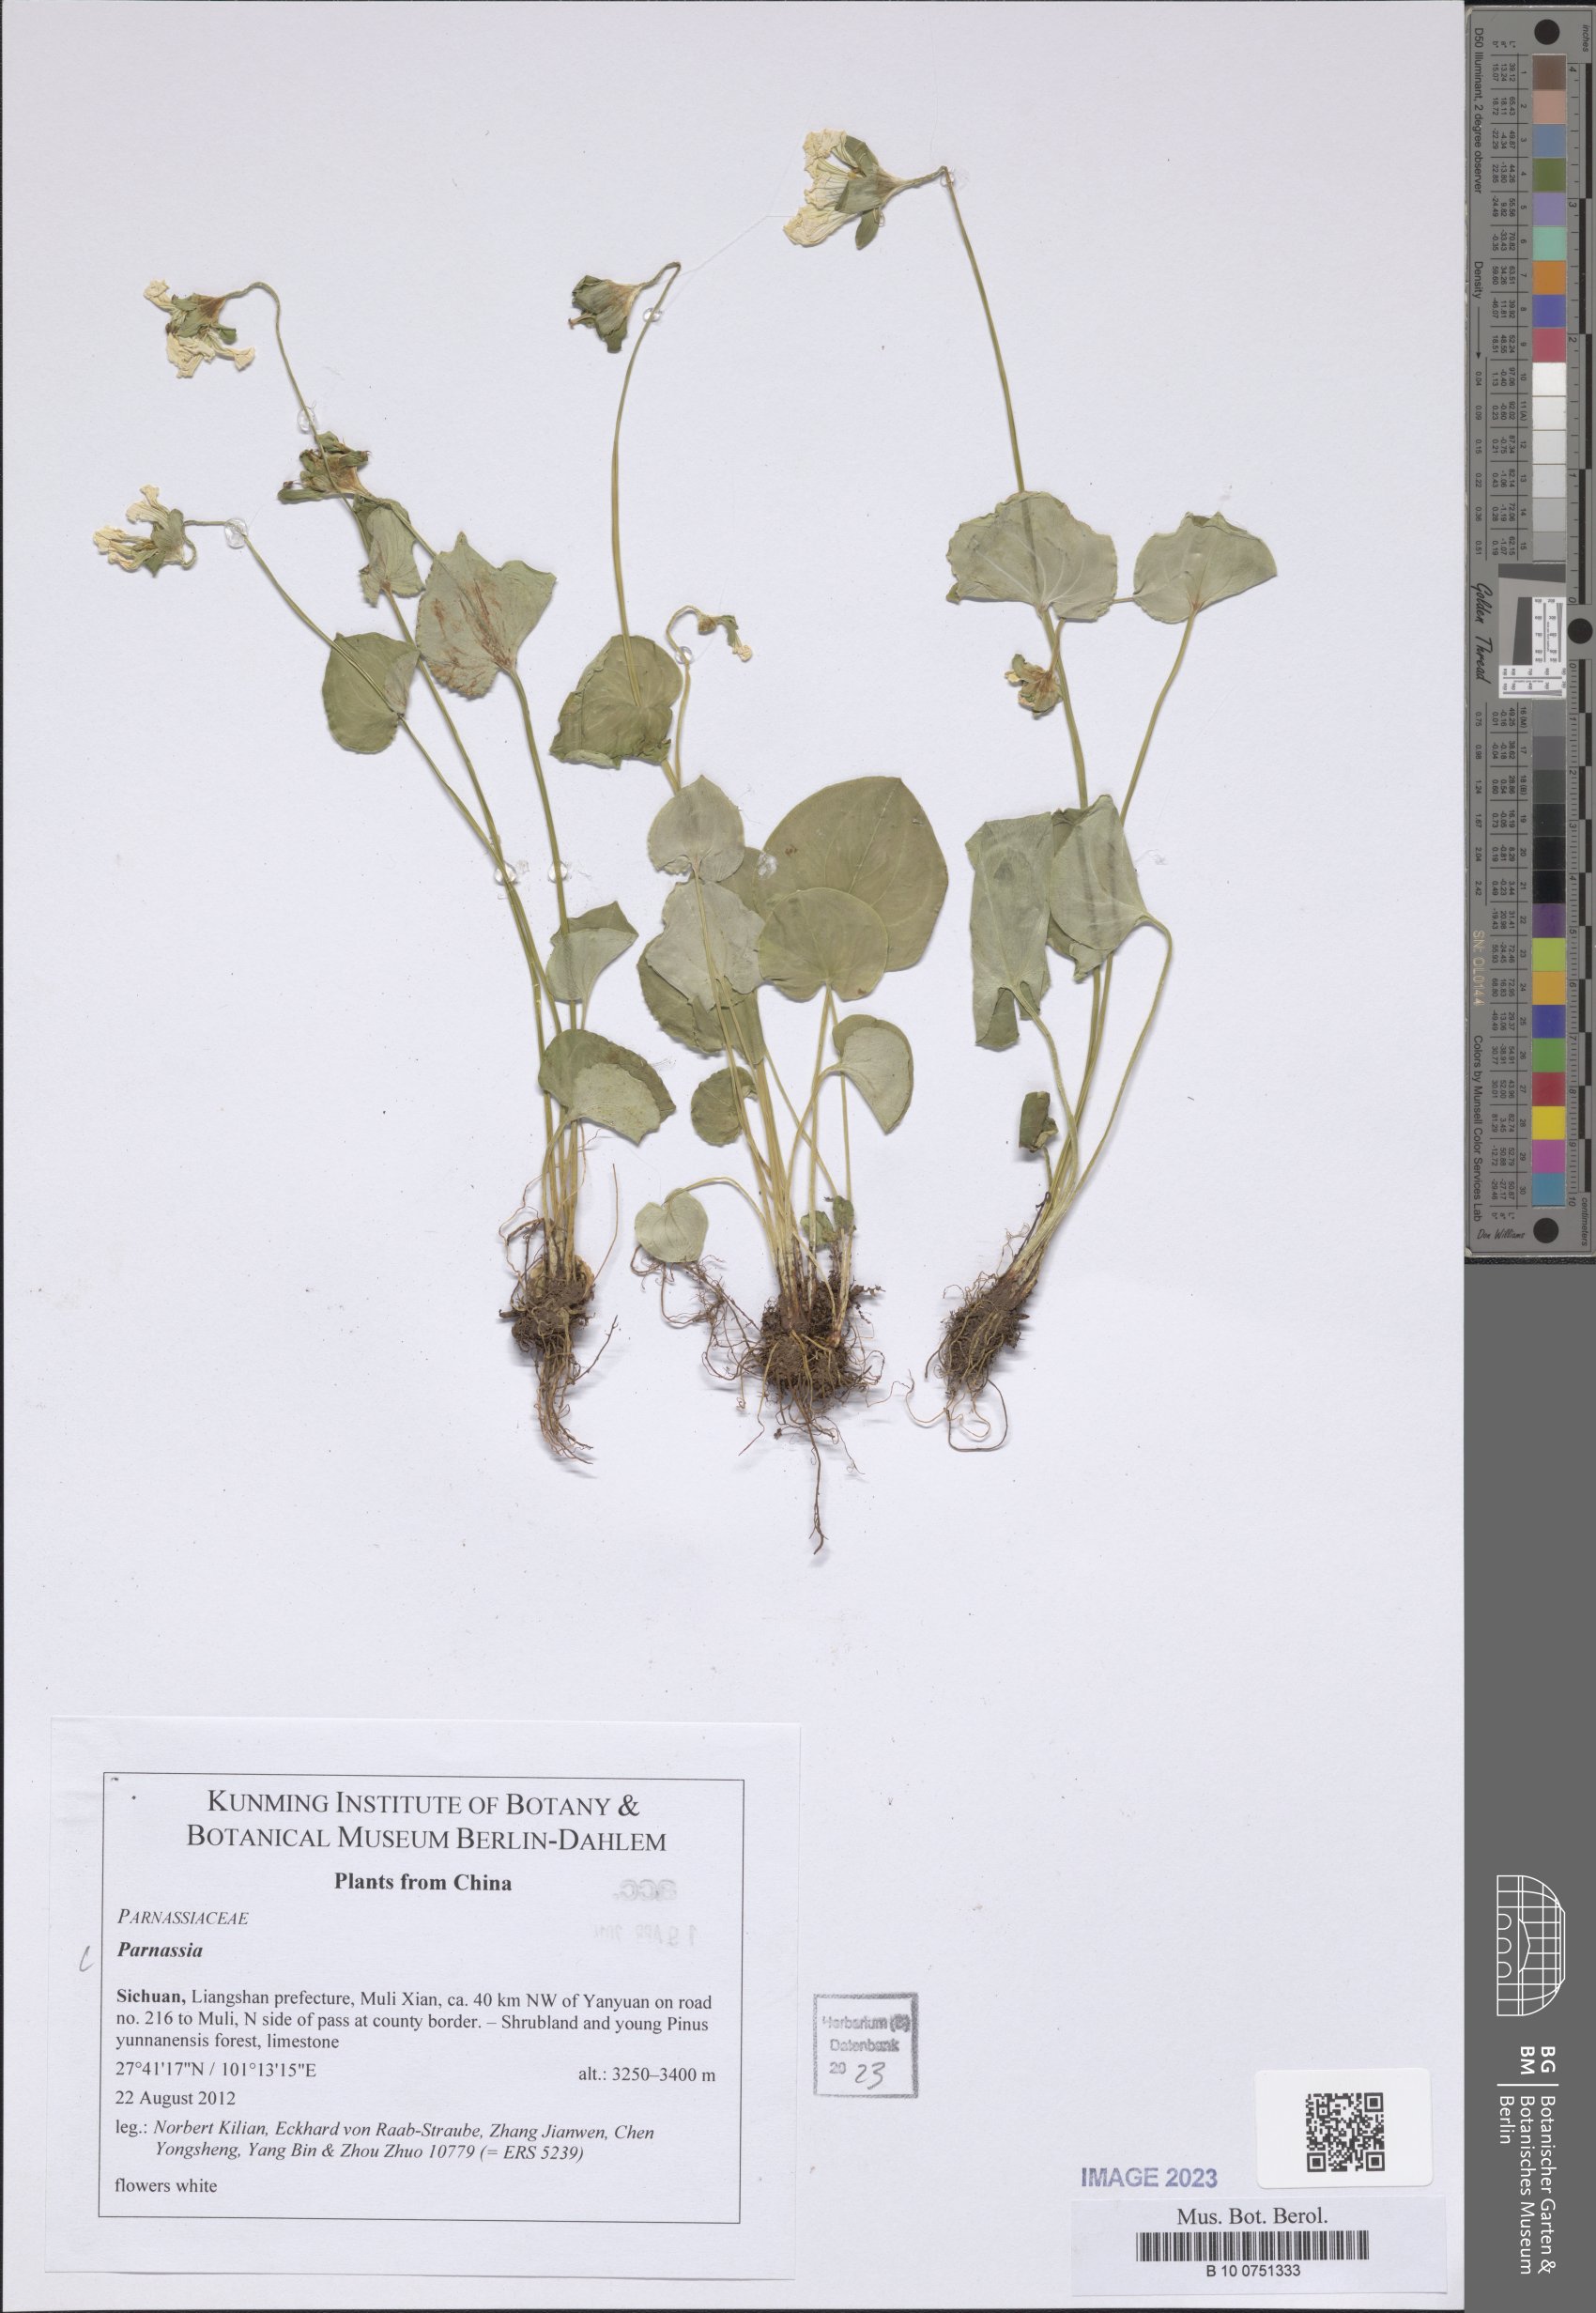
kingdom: Plantae
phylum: Tracheophyta
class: Magnoliopsida
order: Celastrales
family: Parnassiaceae
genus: Parnassia
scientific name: Parnassia
